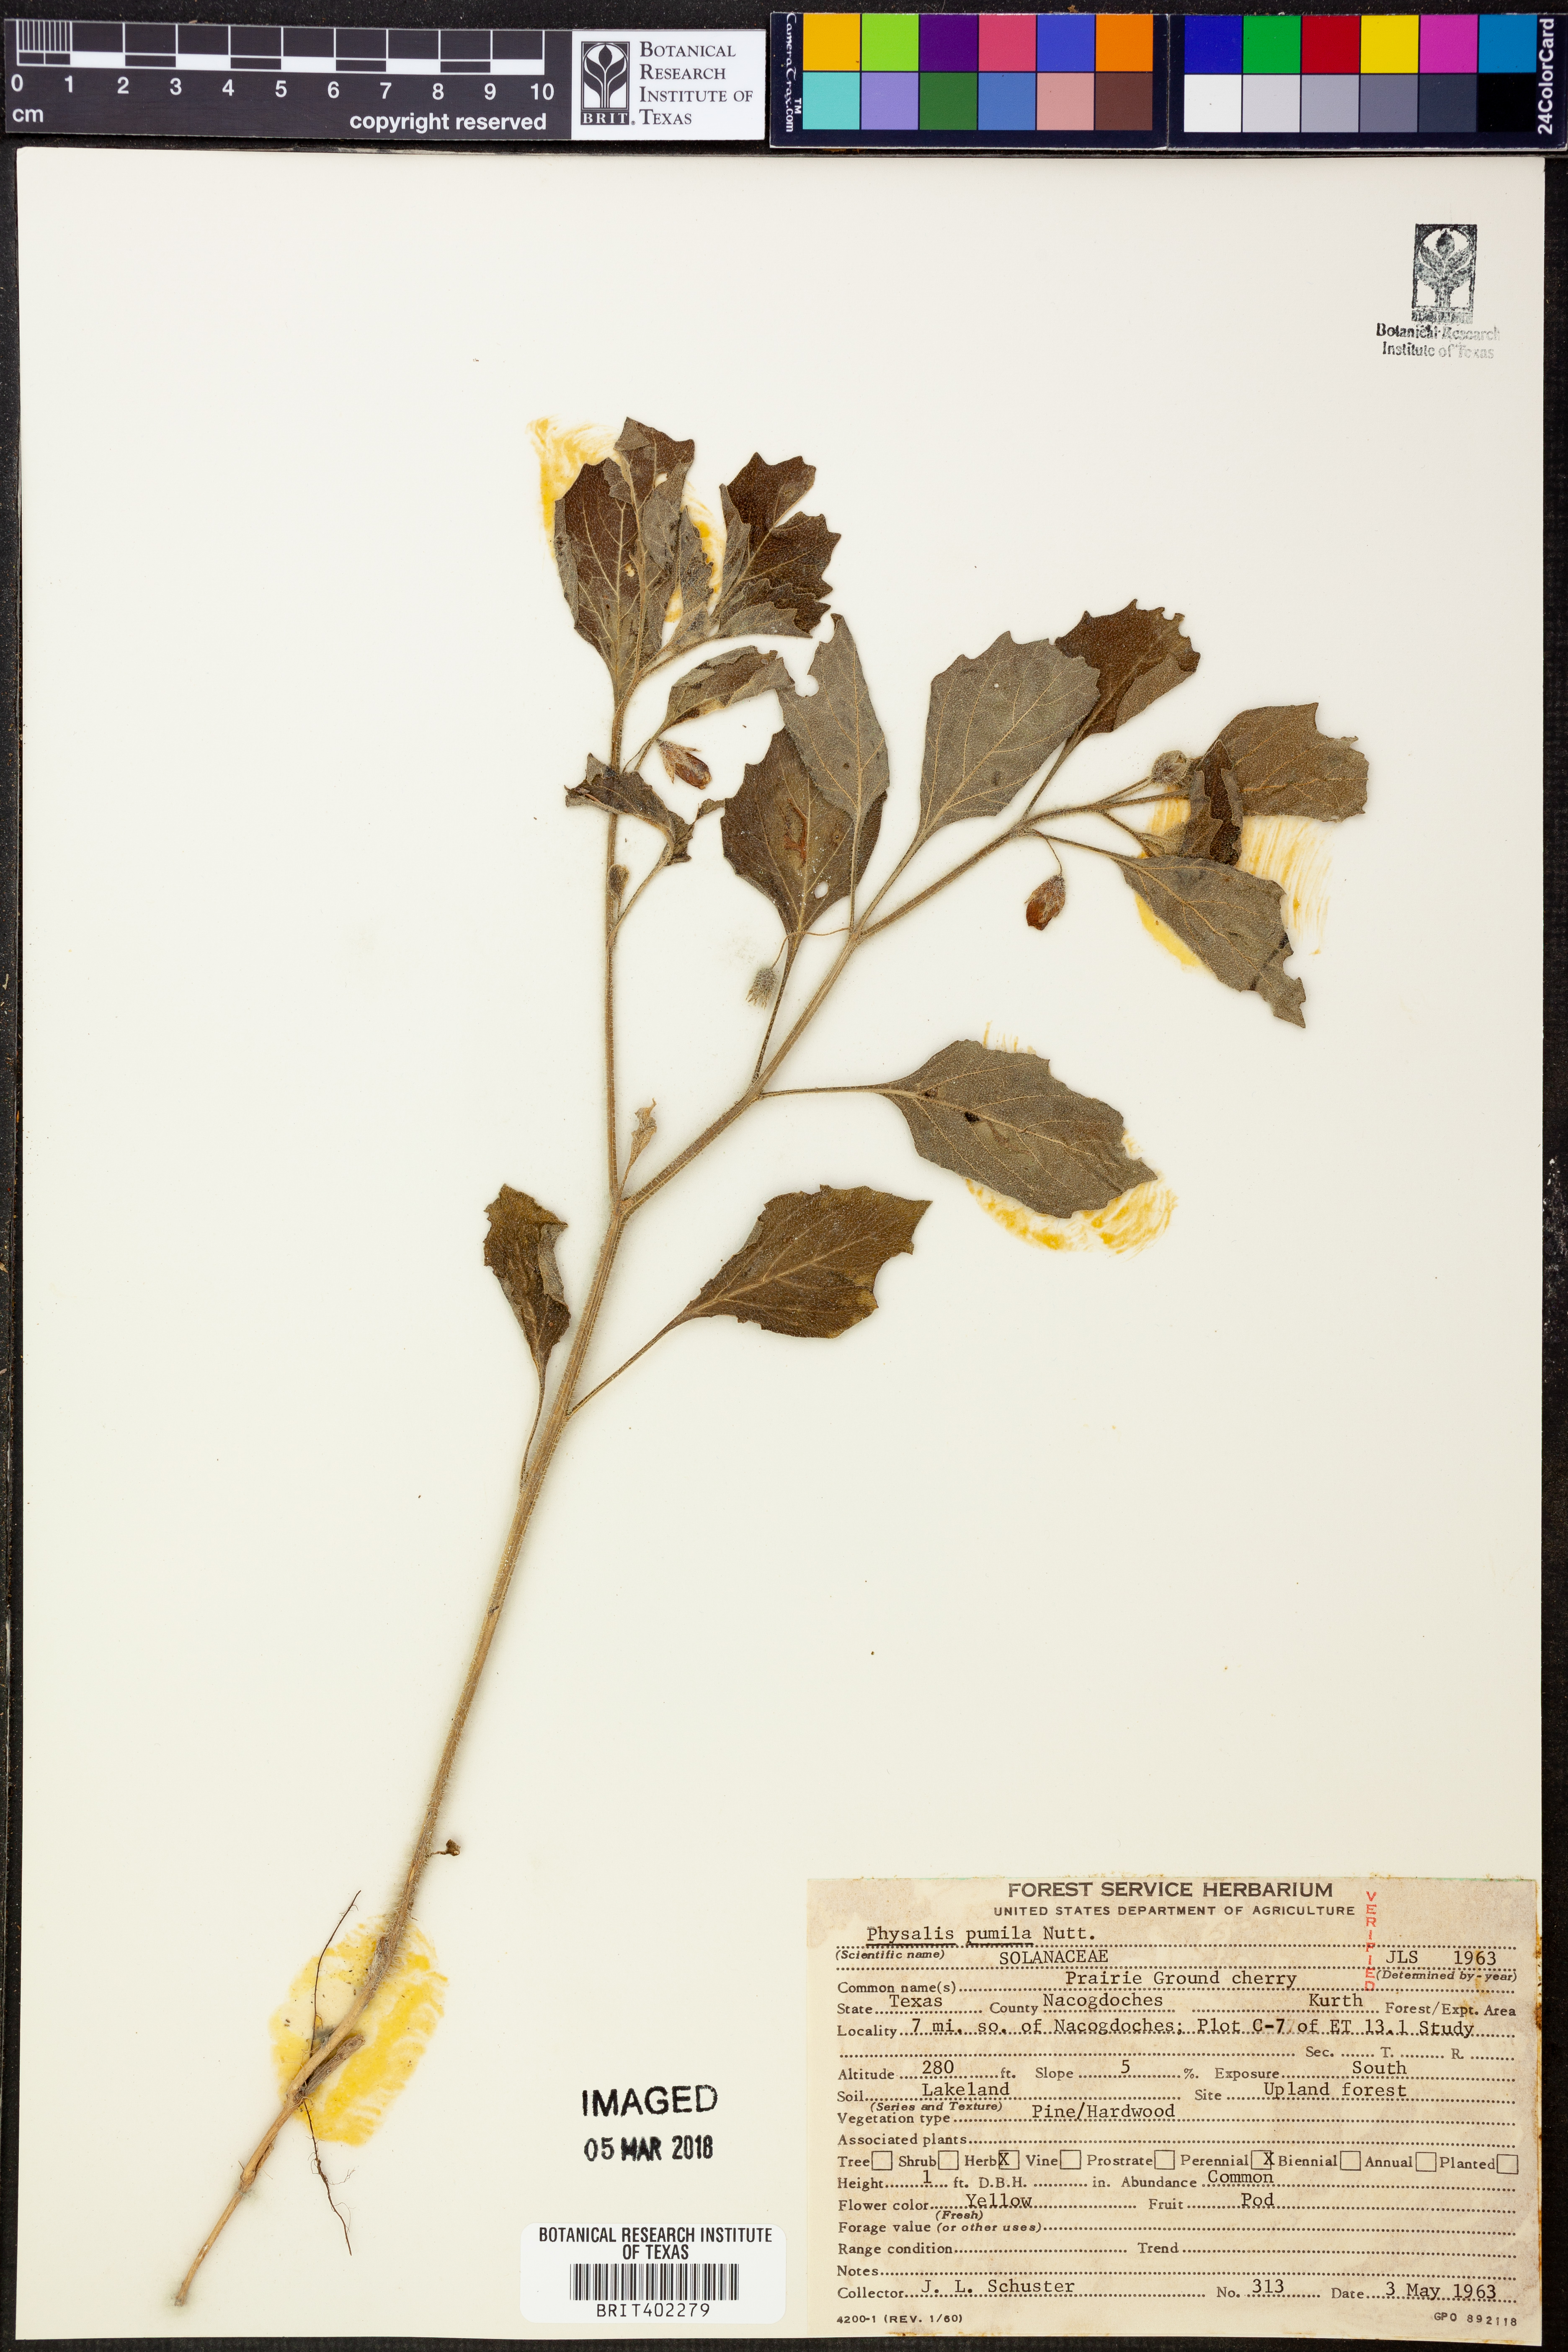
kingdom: Plantae
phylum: Tracheophyta
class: Magnoliopsida
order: Solanales
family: Solanaceae
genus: Physalis
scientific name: Physalis pumila
